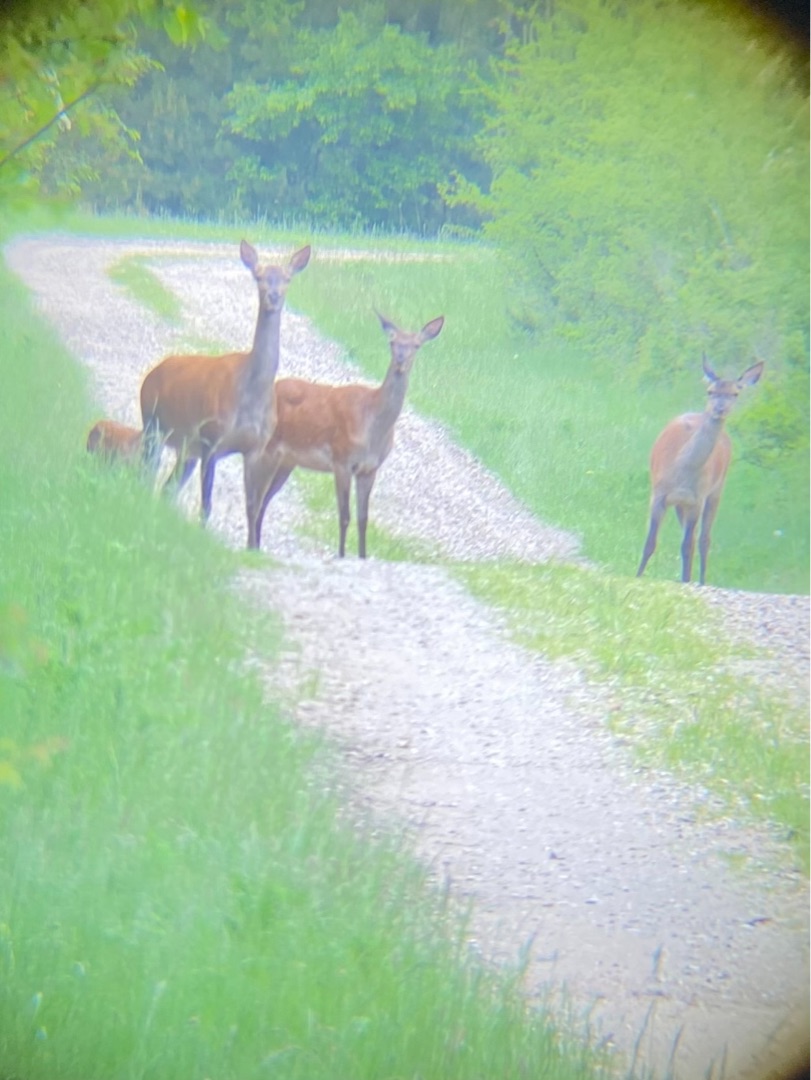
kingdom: Animalia
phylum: Chordata
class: Mammalia
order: Artiodactyla
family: Cervidae
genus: Cervus
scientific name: Cervus elaphus
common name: Krondyr
